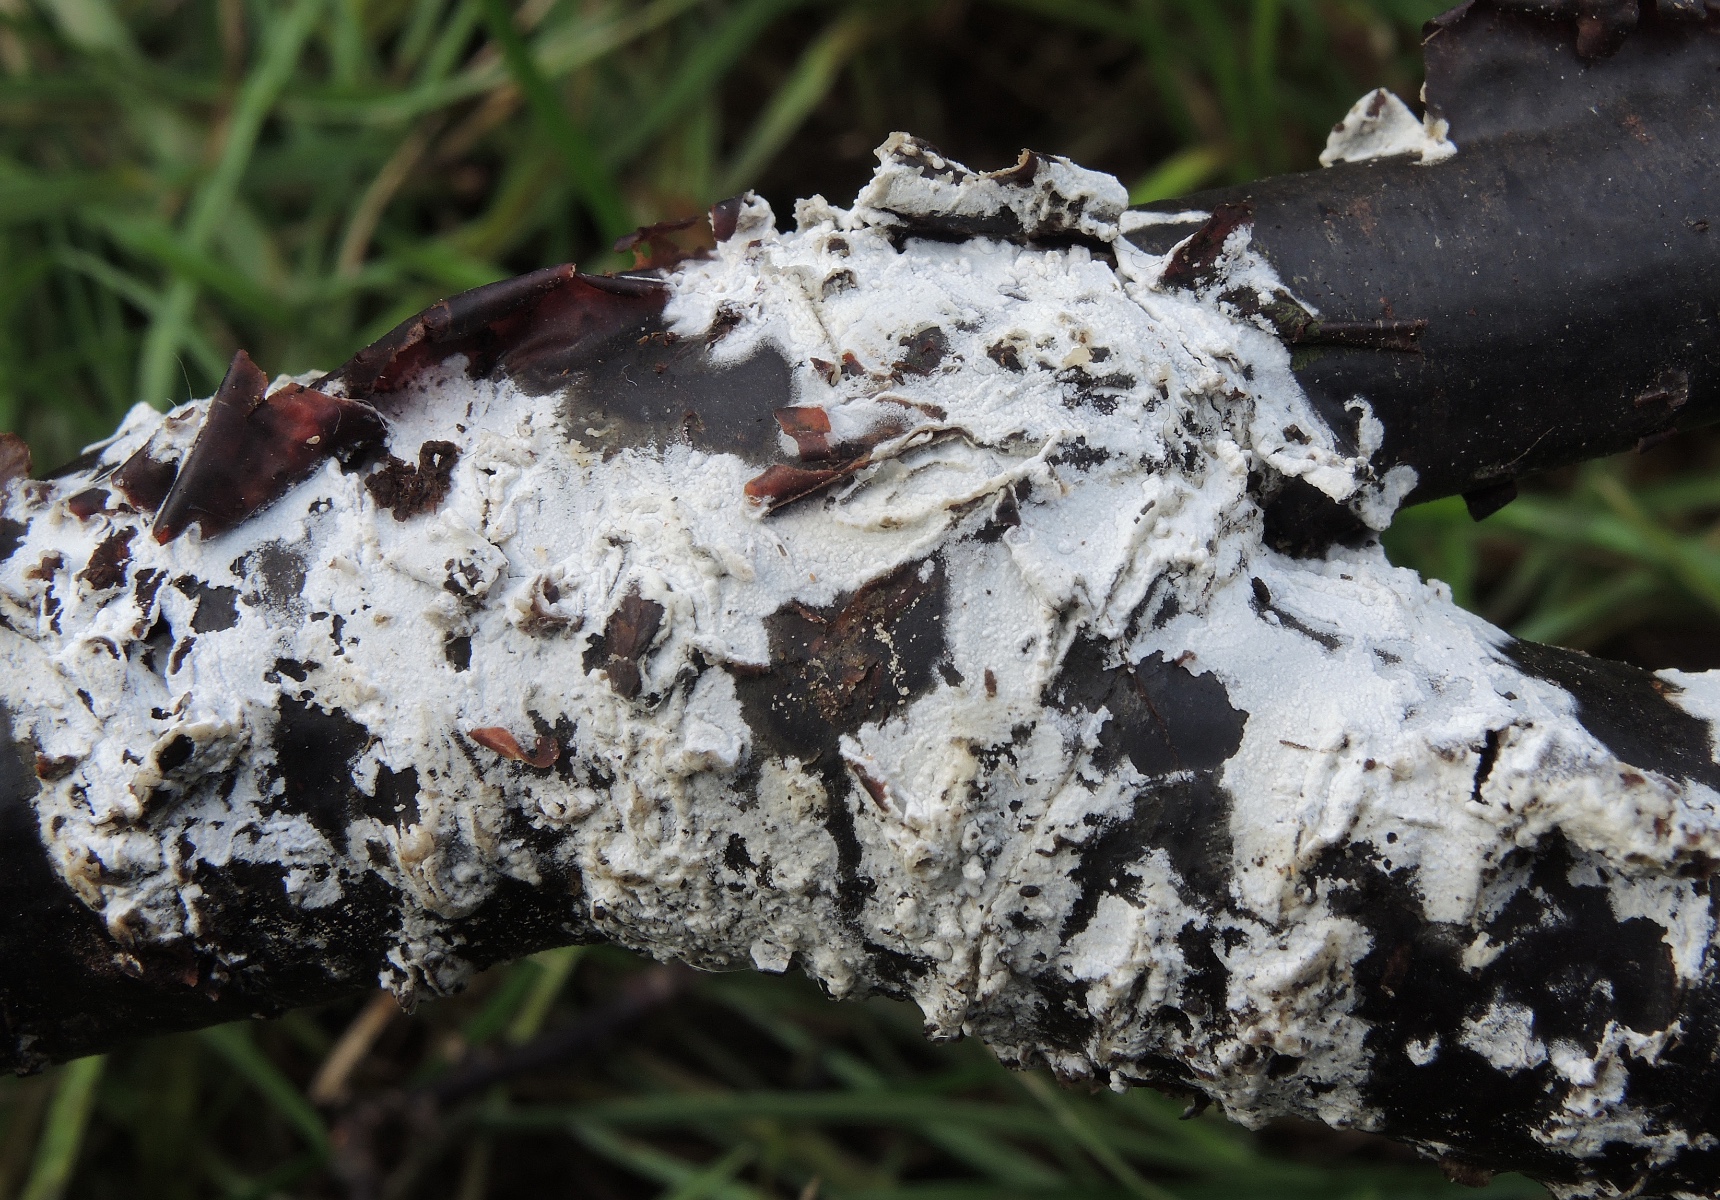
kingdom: Fungi
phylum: Basidiomycota
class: Agaricomycetes
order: Corticiales
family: Corticiaceae
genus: Lyomyces
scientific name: Lyomyces sambuci
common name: almindelig hyldehinde
